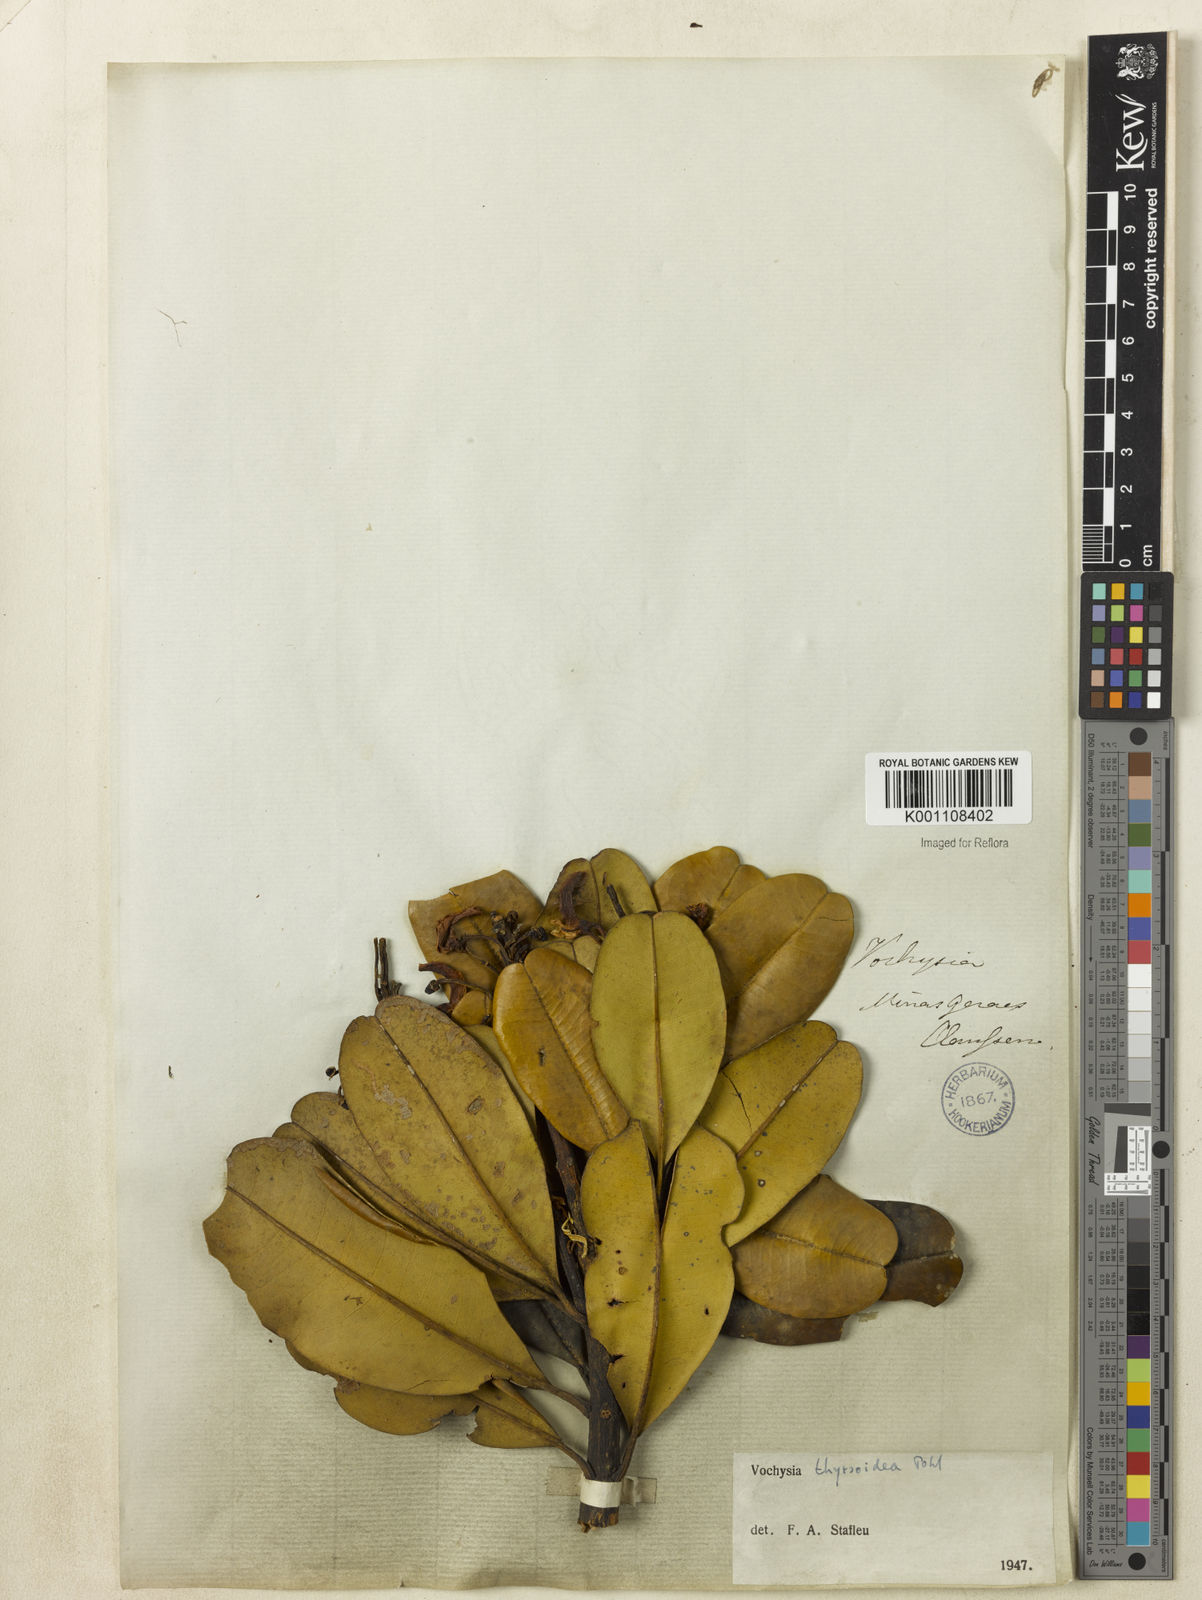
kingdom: Plantae
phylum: Tracheophyta
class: Magnoliopsida
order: Myrtales
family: Vochysiaceae
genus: Vochysia
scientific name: Vochysia thyrsoidea
